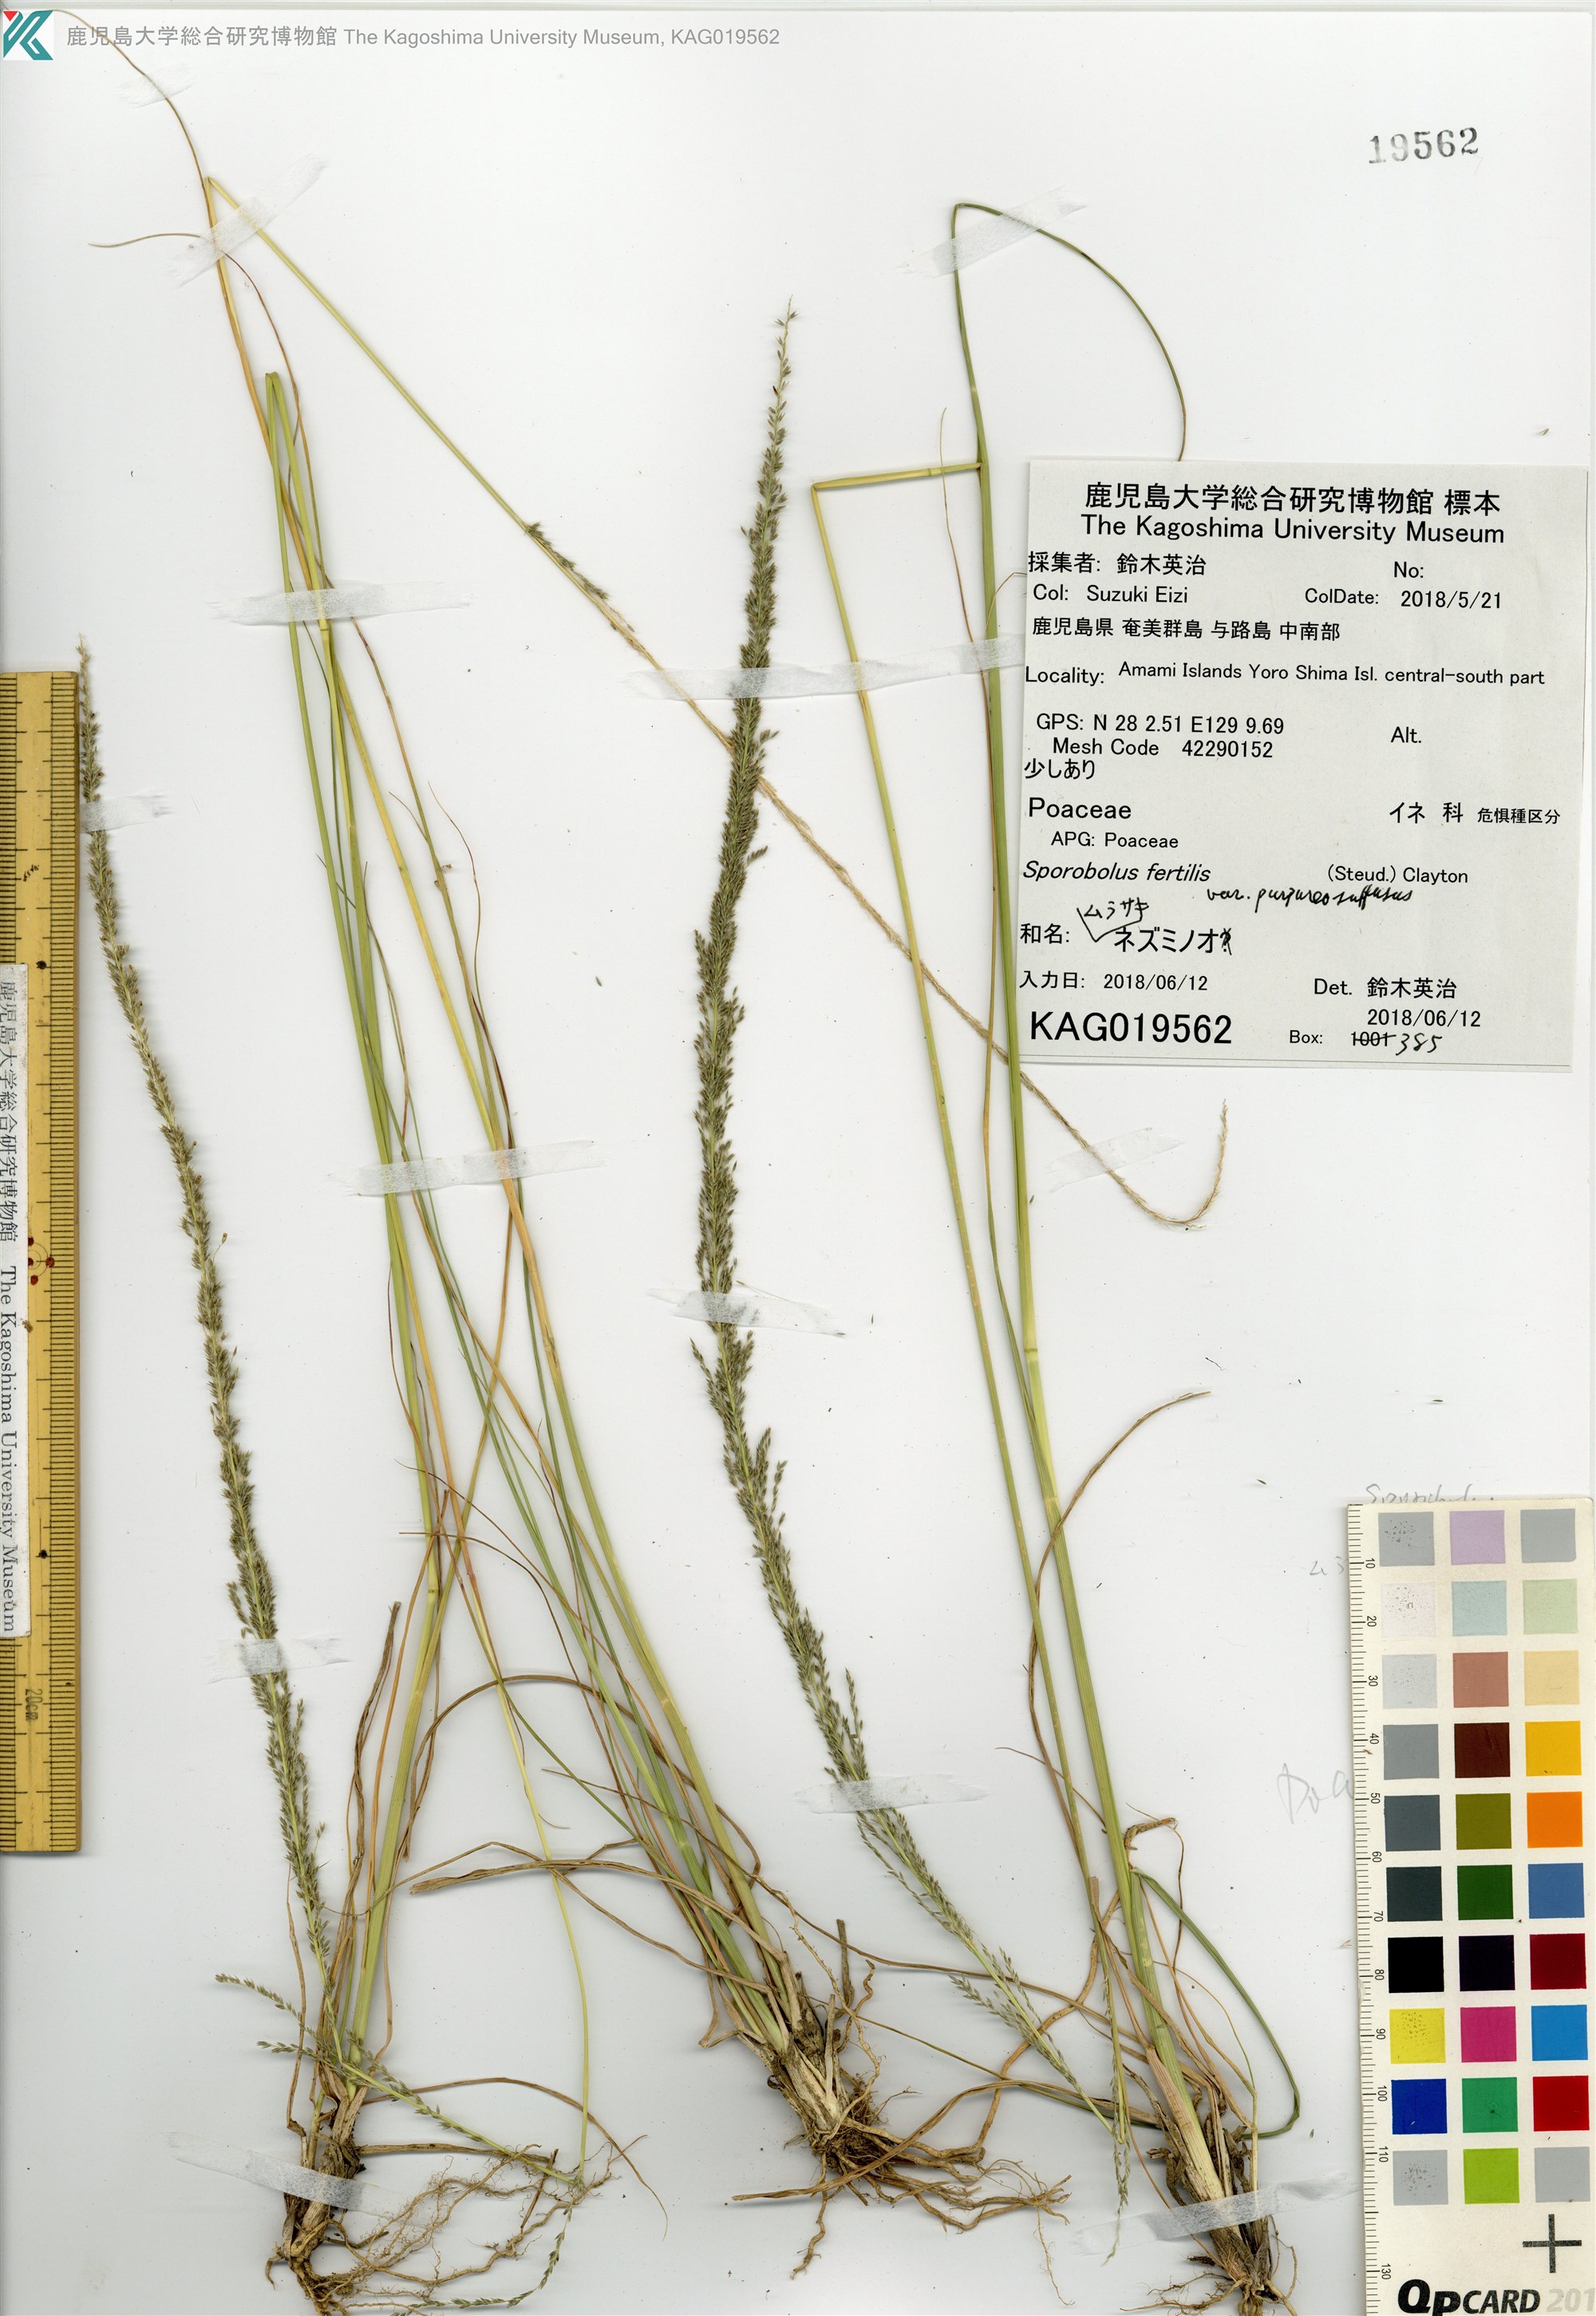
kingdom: Plantae
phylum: Tracheophyta
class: Liliopsida
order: Poales
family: Poaceae
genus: Sporobolus
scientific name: Sporobolus fertilis
